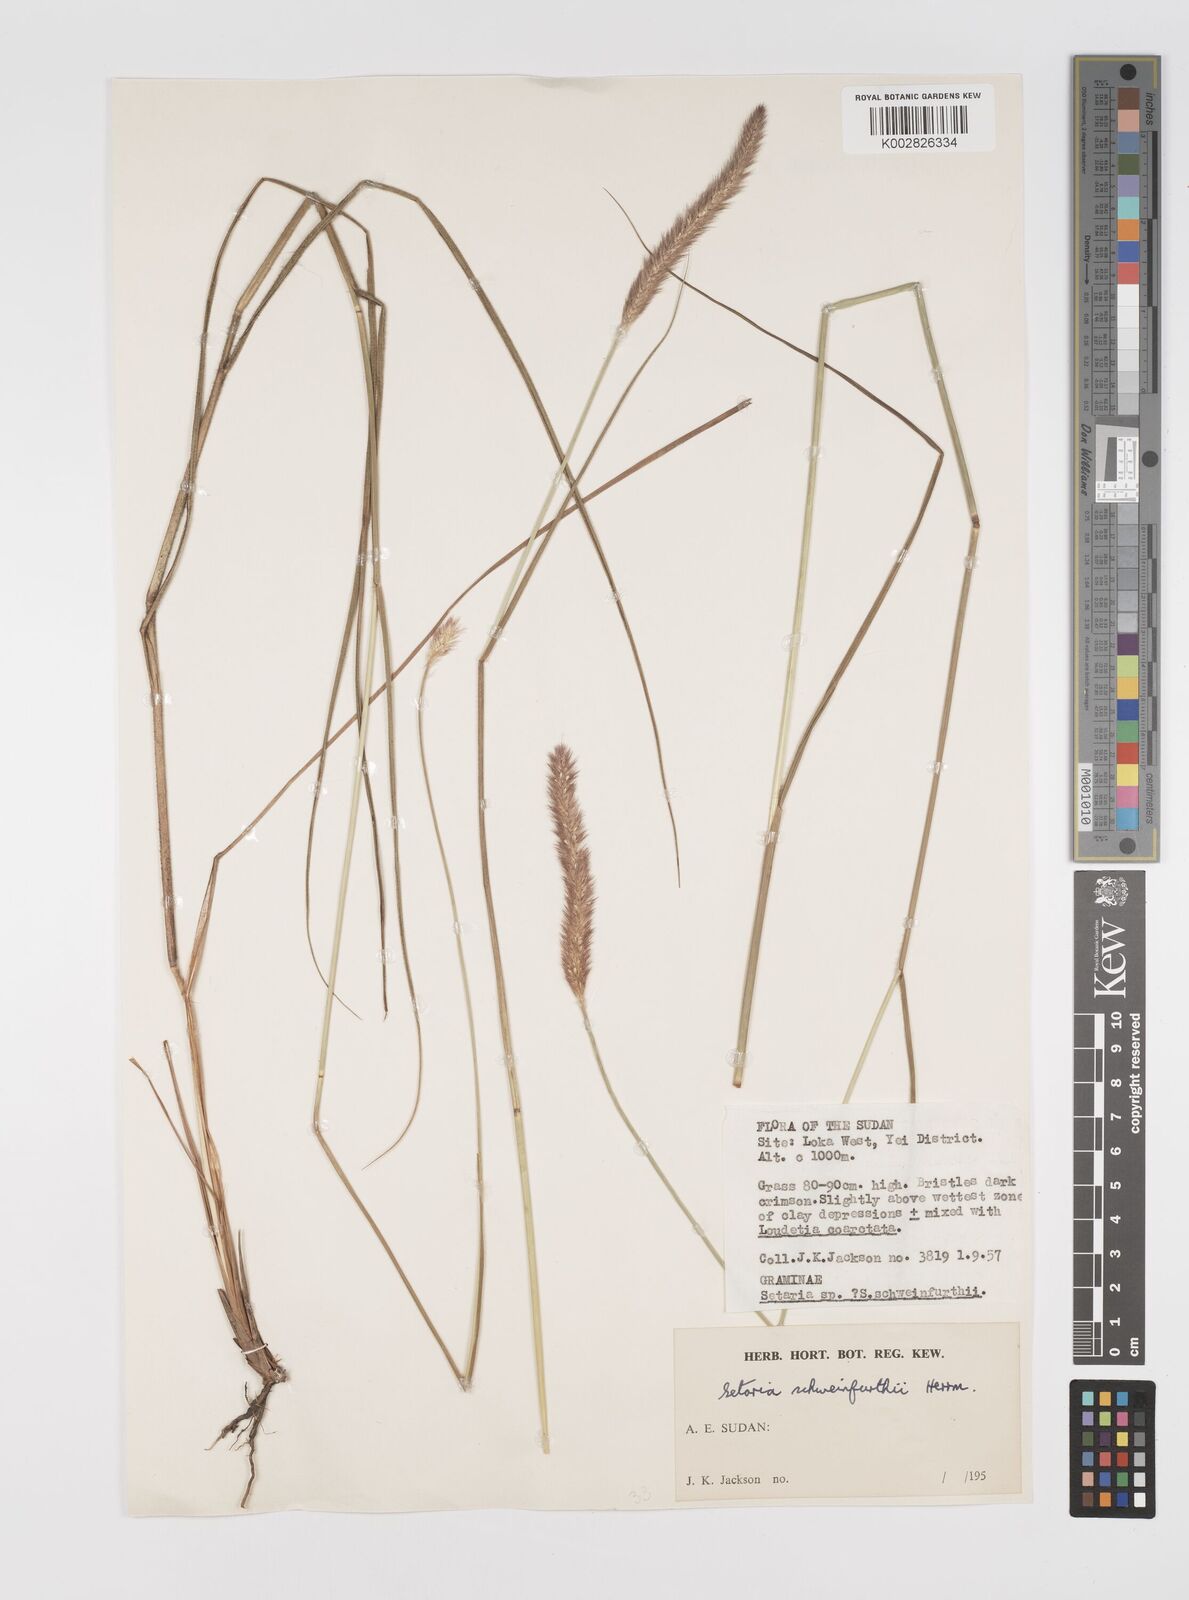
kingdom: Plantae
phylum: Tracheophyta
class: Liliopsida
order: Poales
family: Poaceae
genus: Setaria
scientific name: Setaria restioidea
